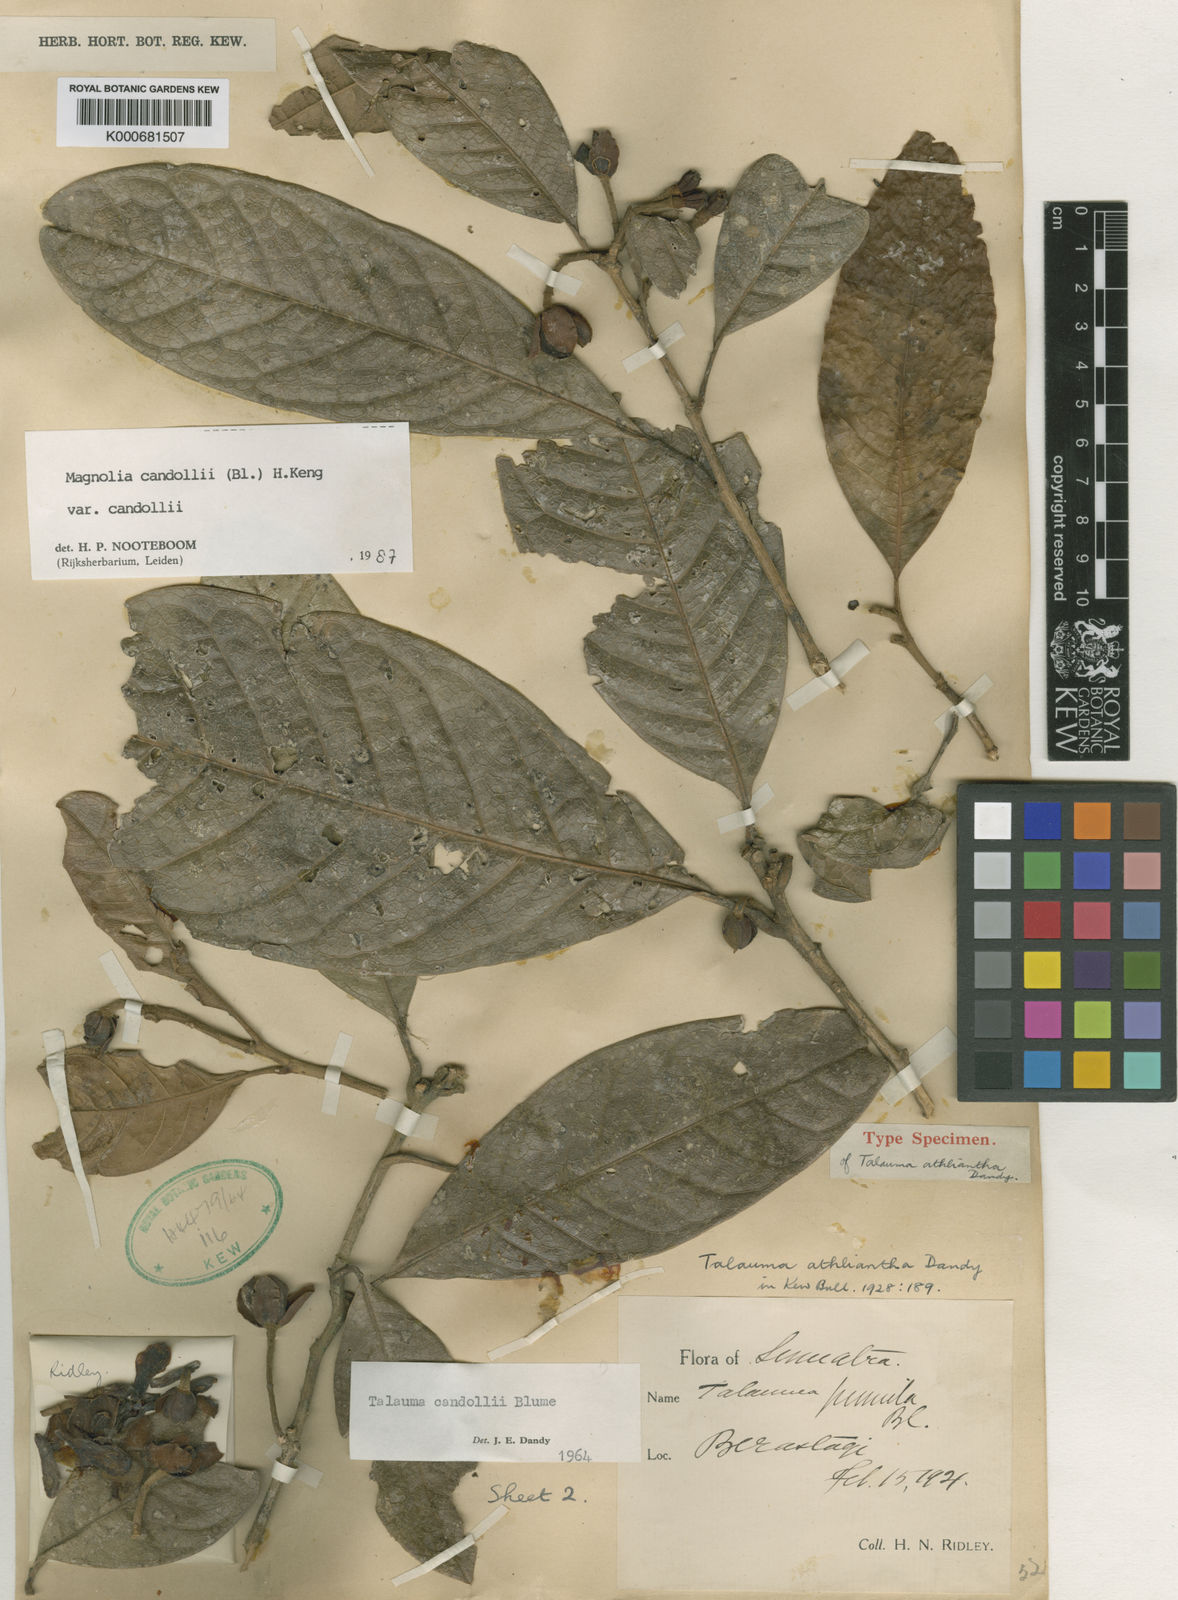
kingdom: Plantae
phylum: Tracheophyta
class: Magnoliopsida
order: Magnoliales
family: Magnoliaceae
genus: Magnolia
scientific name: Magnolia liliifera
